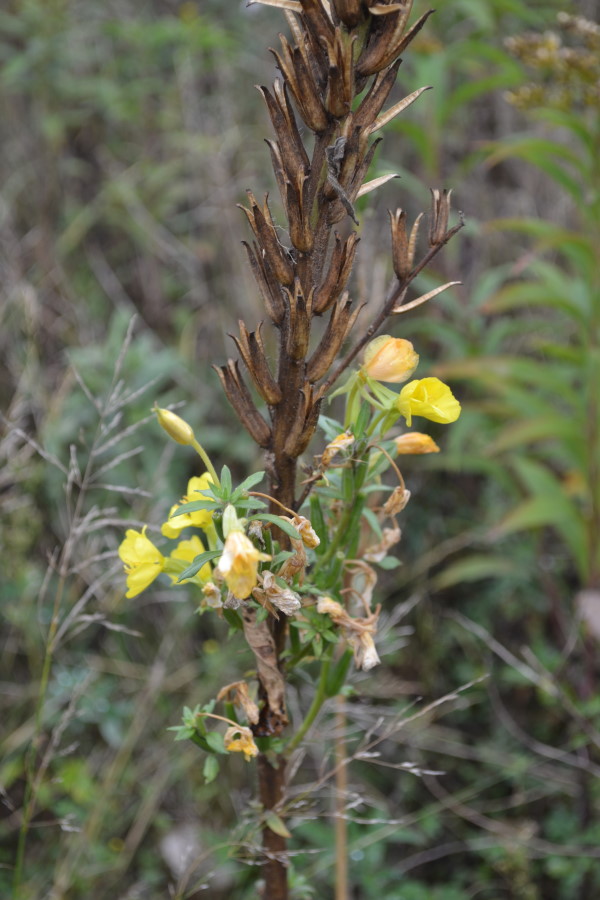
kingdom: Plantae
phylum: Tracheophyta
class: Magnoliopsida
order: Myrtales
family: Onagraceae
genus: Oenothera
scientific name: Oenothera rubricaulis
